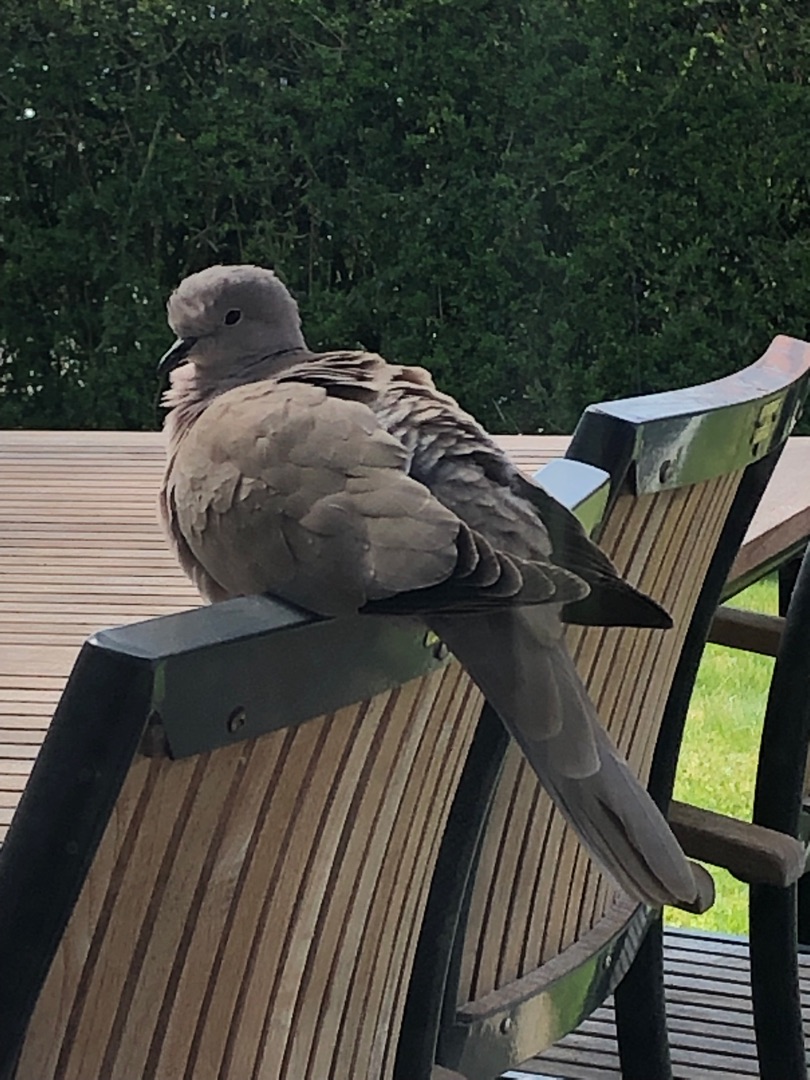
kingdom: Animalia
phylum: Chordata
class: Aves
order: Columbiformes
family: Columbidae
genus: Streptopelia
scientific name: Streptopelia decaocto
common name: Tyrkerdue
